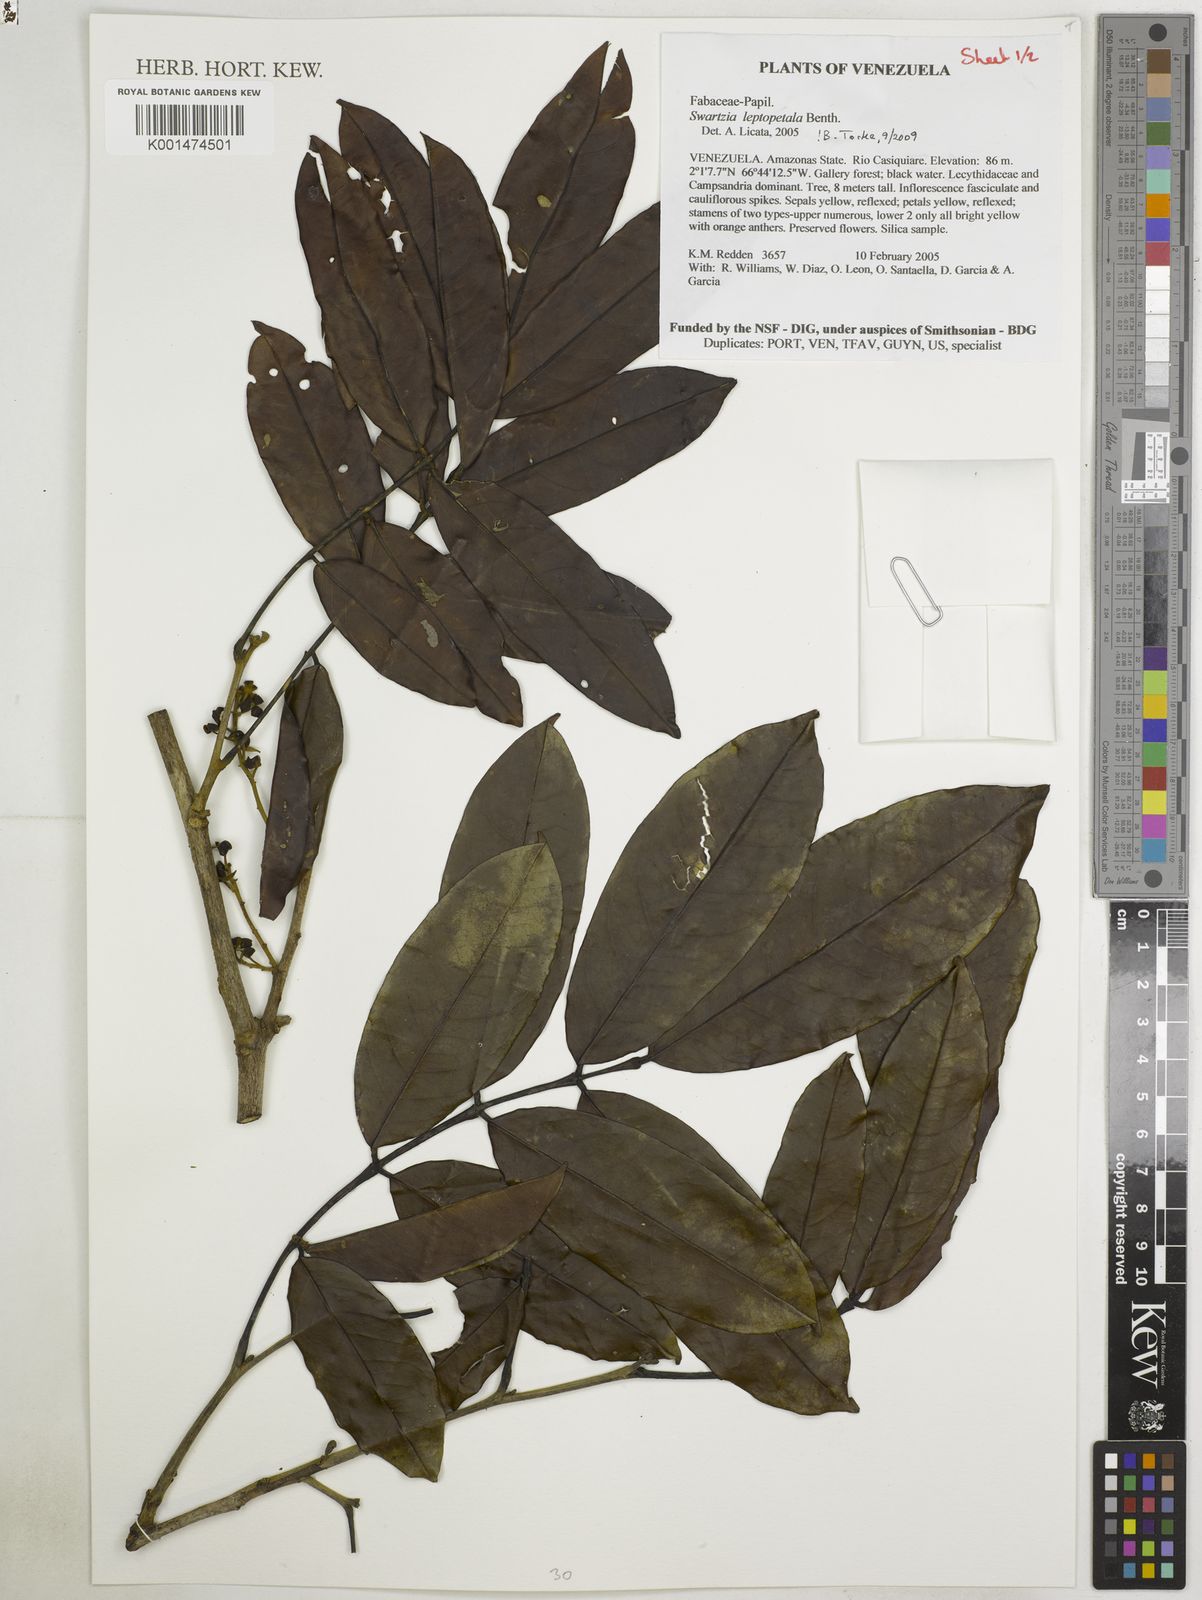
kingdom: Plantae
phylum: Tracheophyta
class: Magnoliopsida
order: Fabales
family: Fabaceae
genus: Swartzia
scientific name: Swartzia leptopetala
